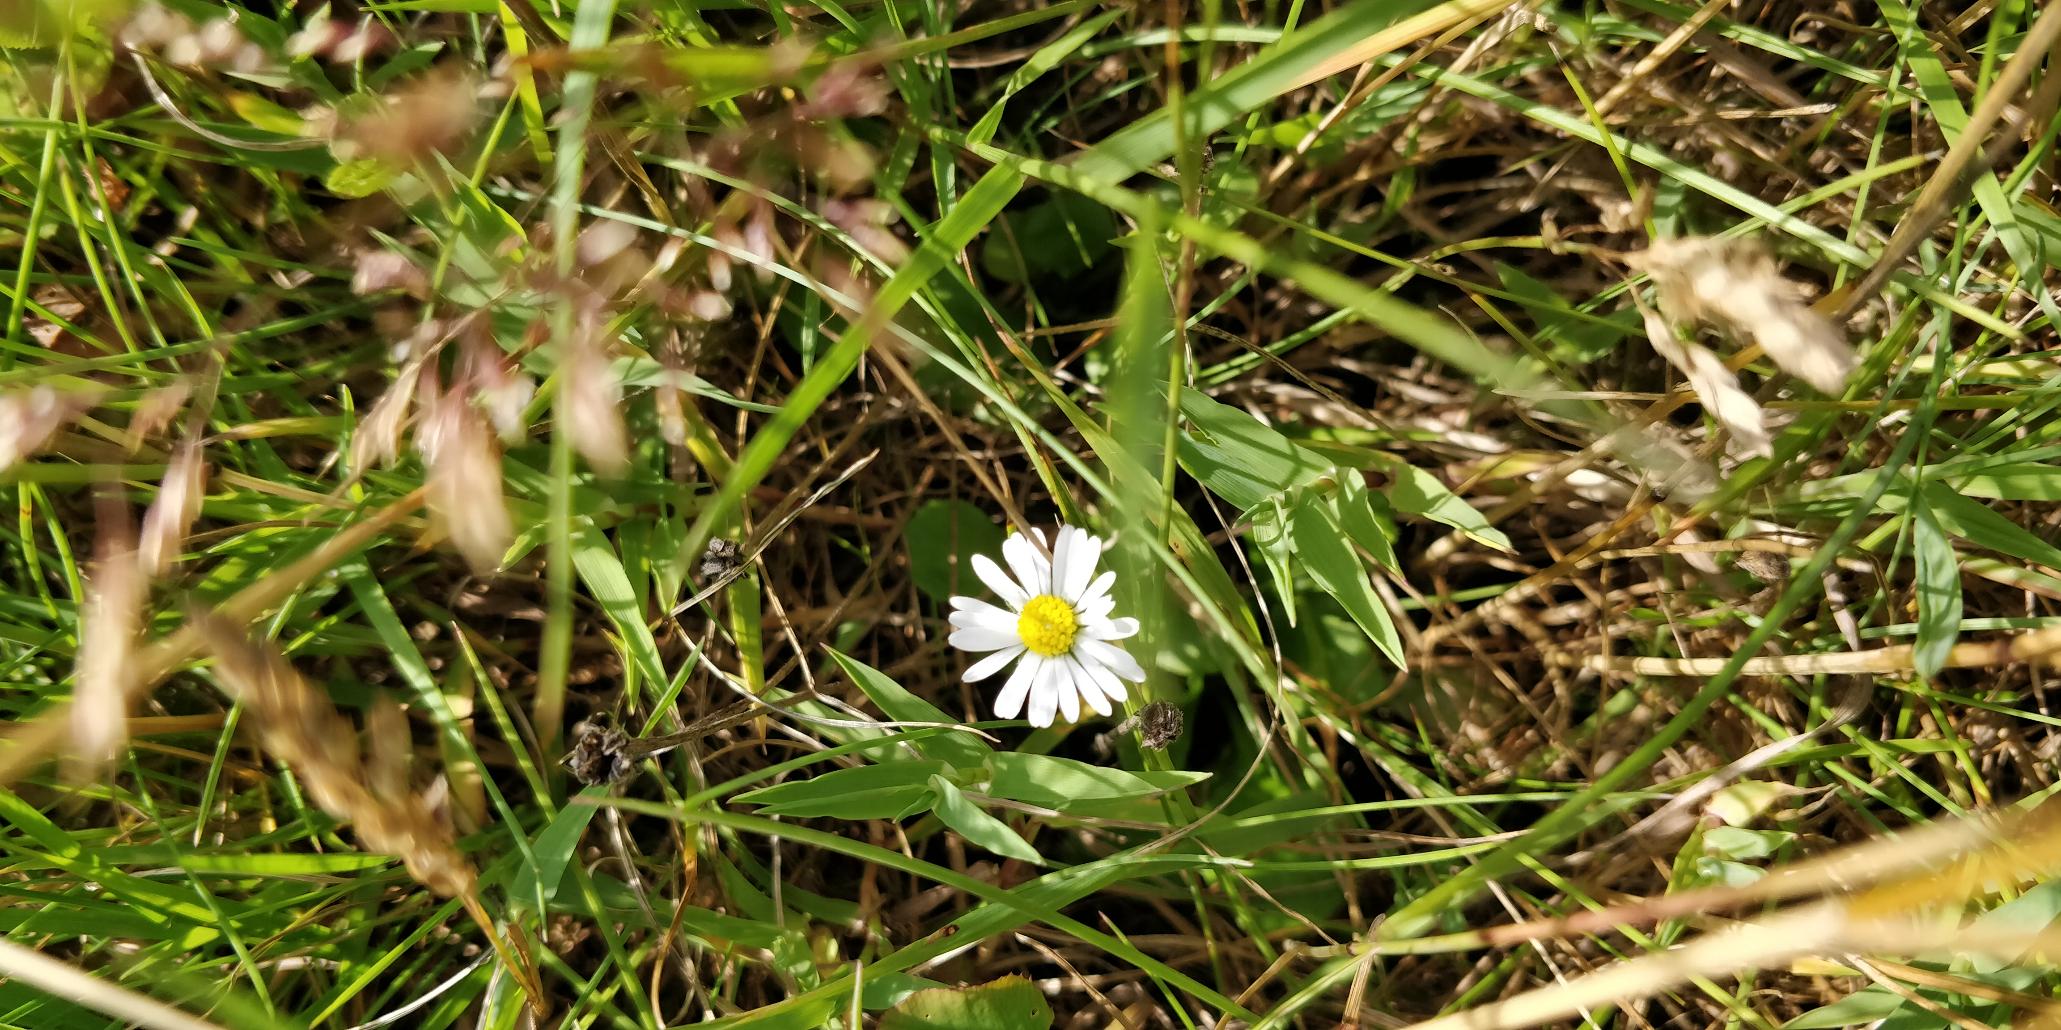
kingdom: Plantae
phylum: Tracheophyta
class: Magnoliopsida
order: Asterales
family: Asteraceae
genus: Bellis
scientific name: Bellis perennis
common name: Tusindfryd
